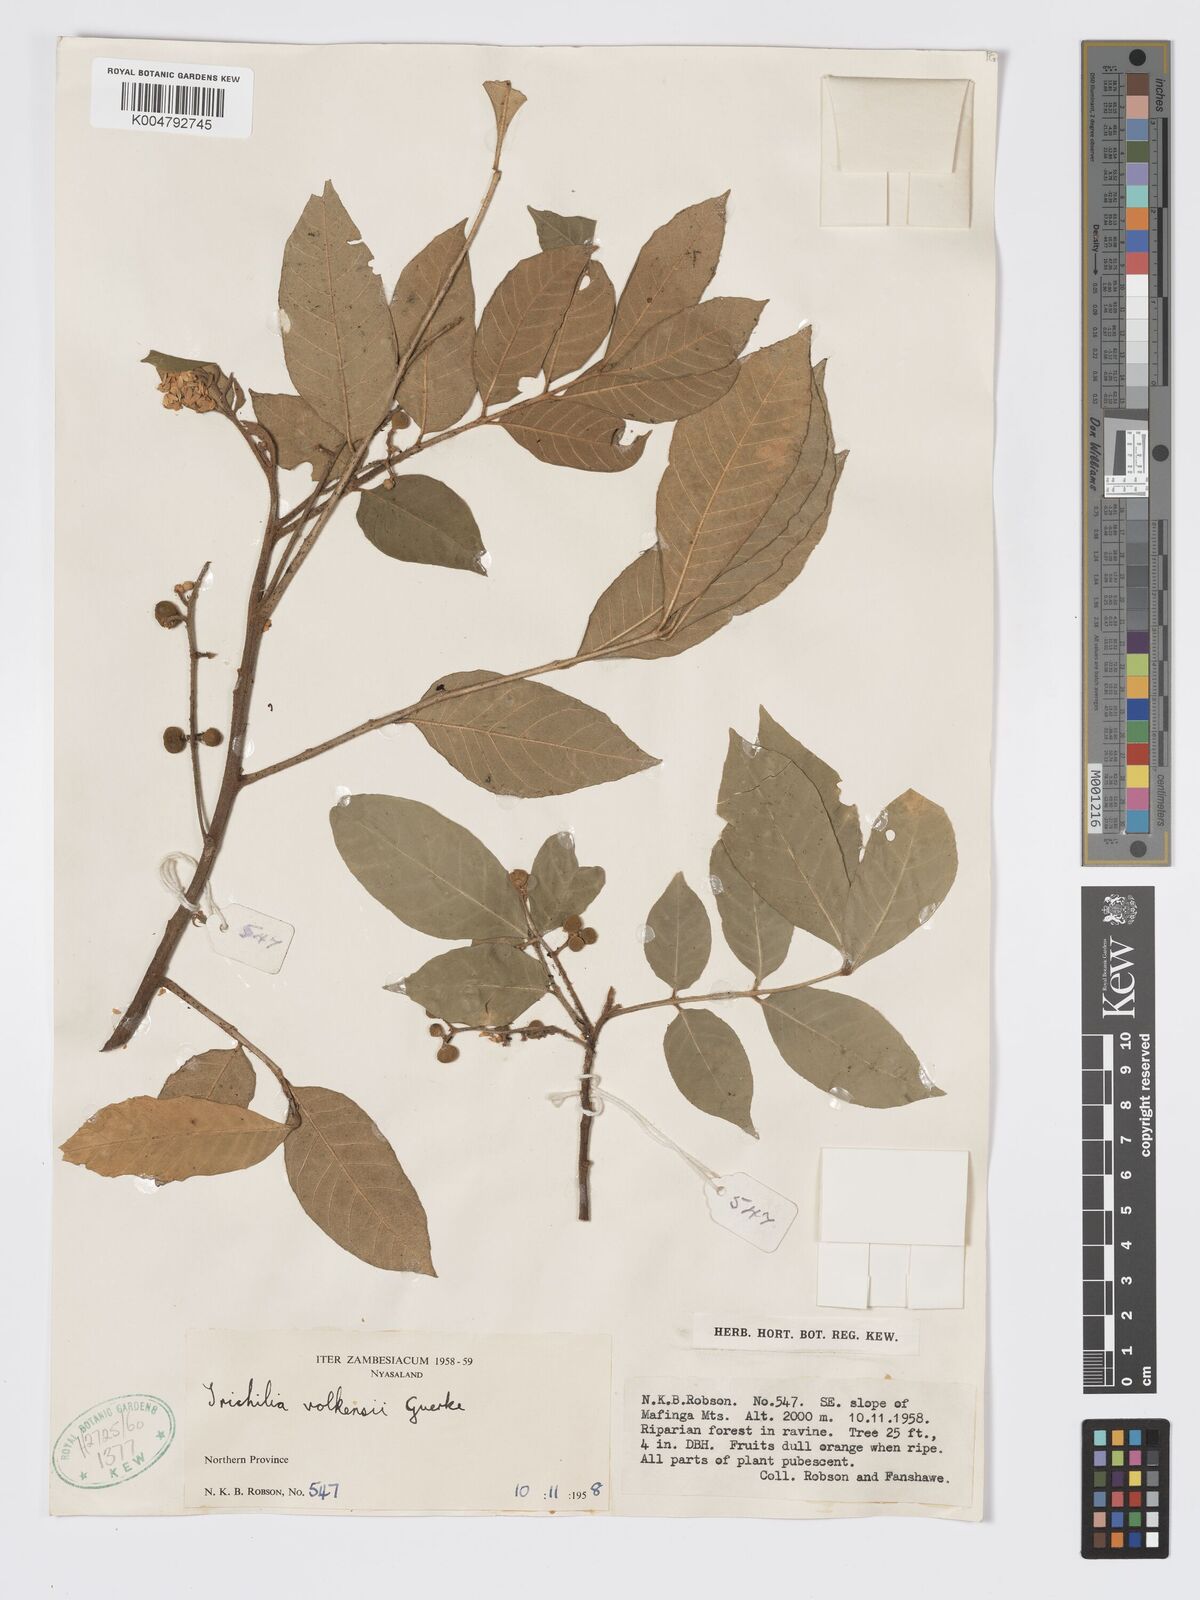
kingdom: Plantae
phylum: Tracheophyta
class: Magnoliopsida
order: Sapindales
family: Meliaceae
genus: Lepidotrichilia
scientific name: Lepidotrichilia volkensii
